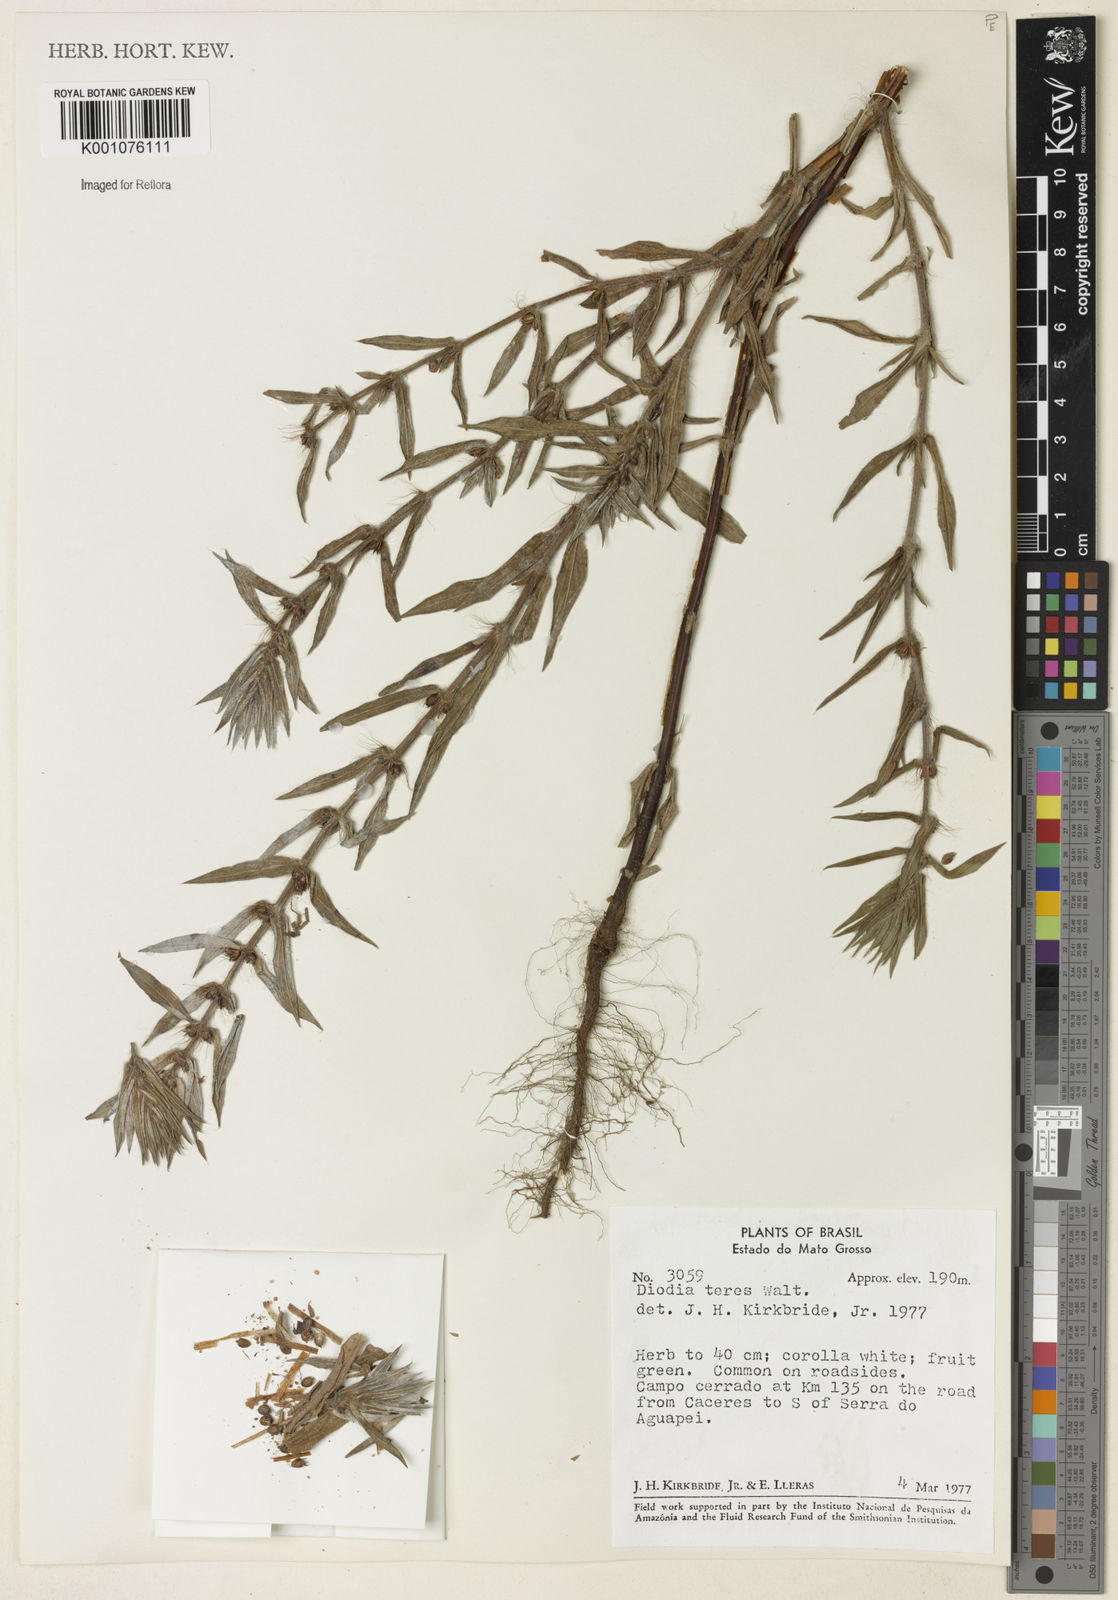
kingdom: Plantae
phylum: Tracheophyta
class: Magnoliopsida
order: Gentianales
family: Rubiaceae
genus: Hexasepalum
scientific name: Hexasepalum teres
